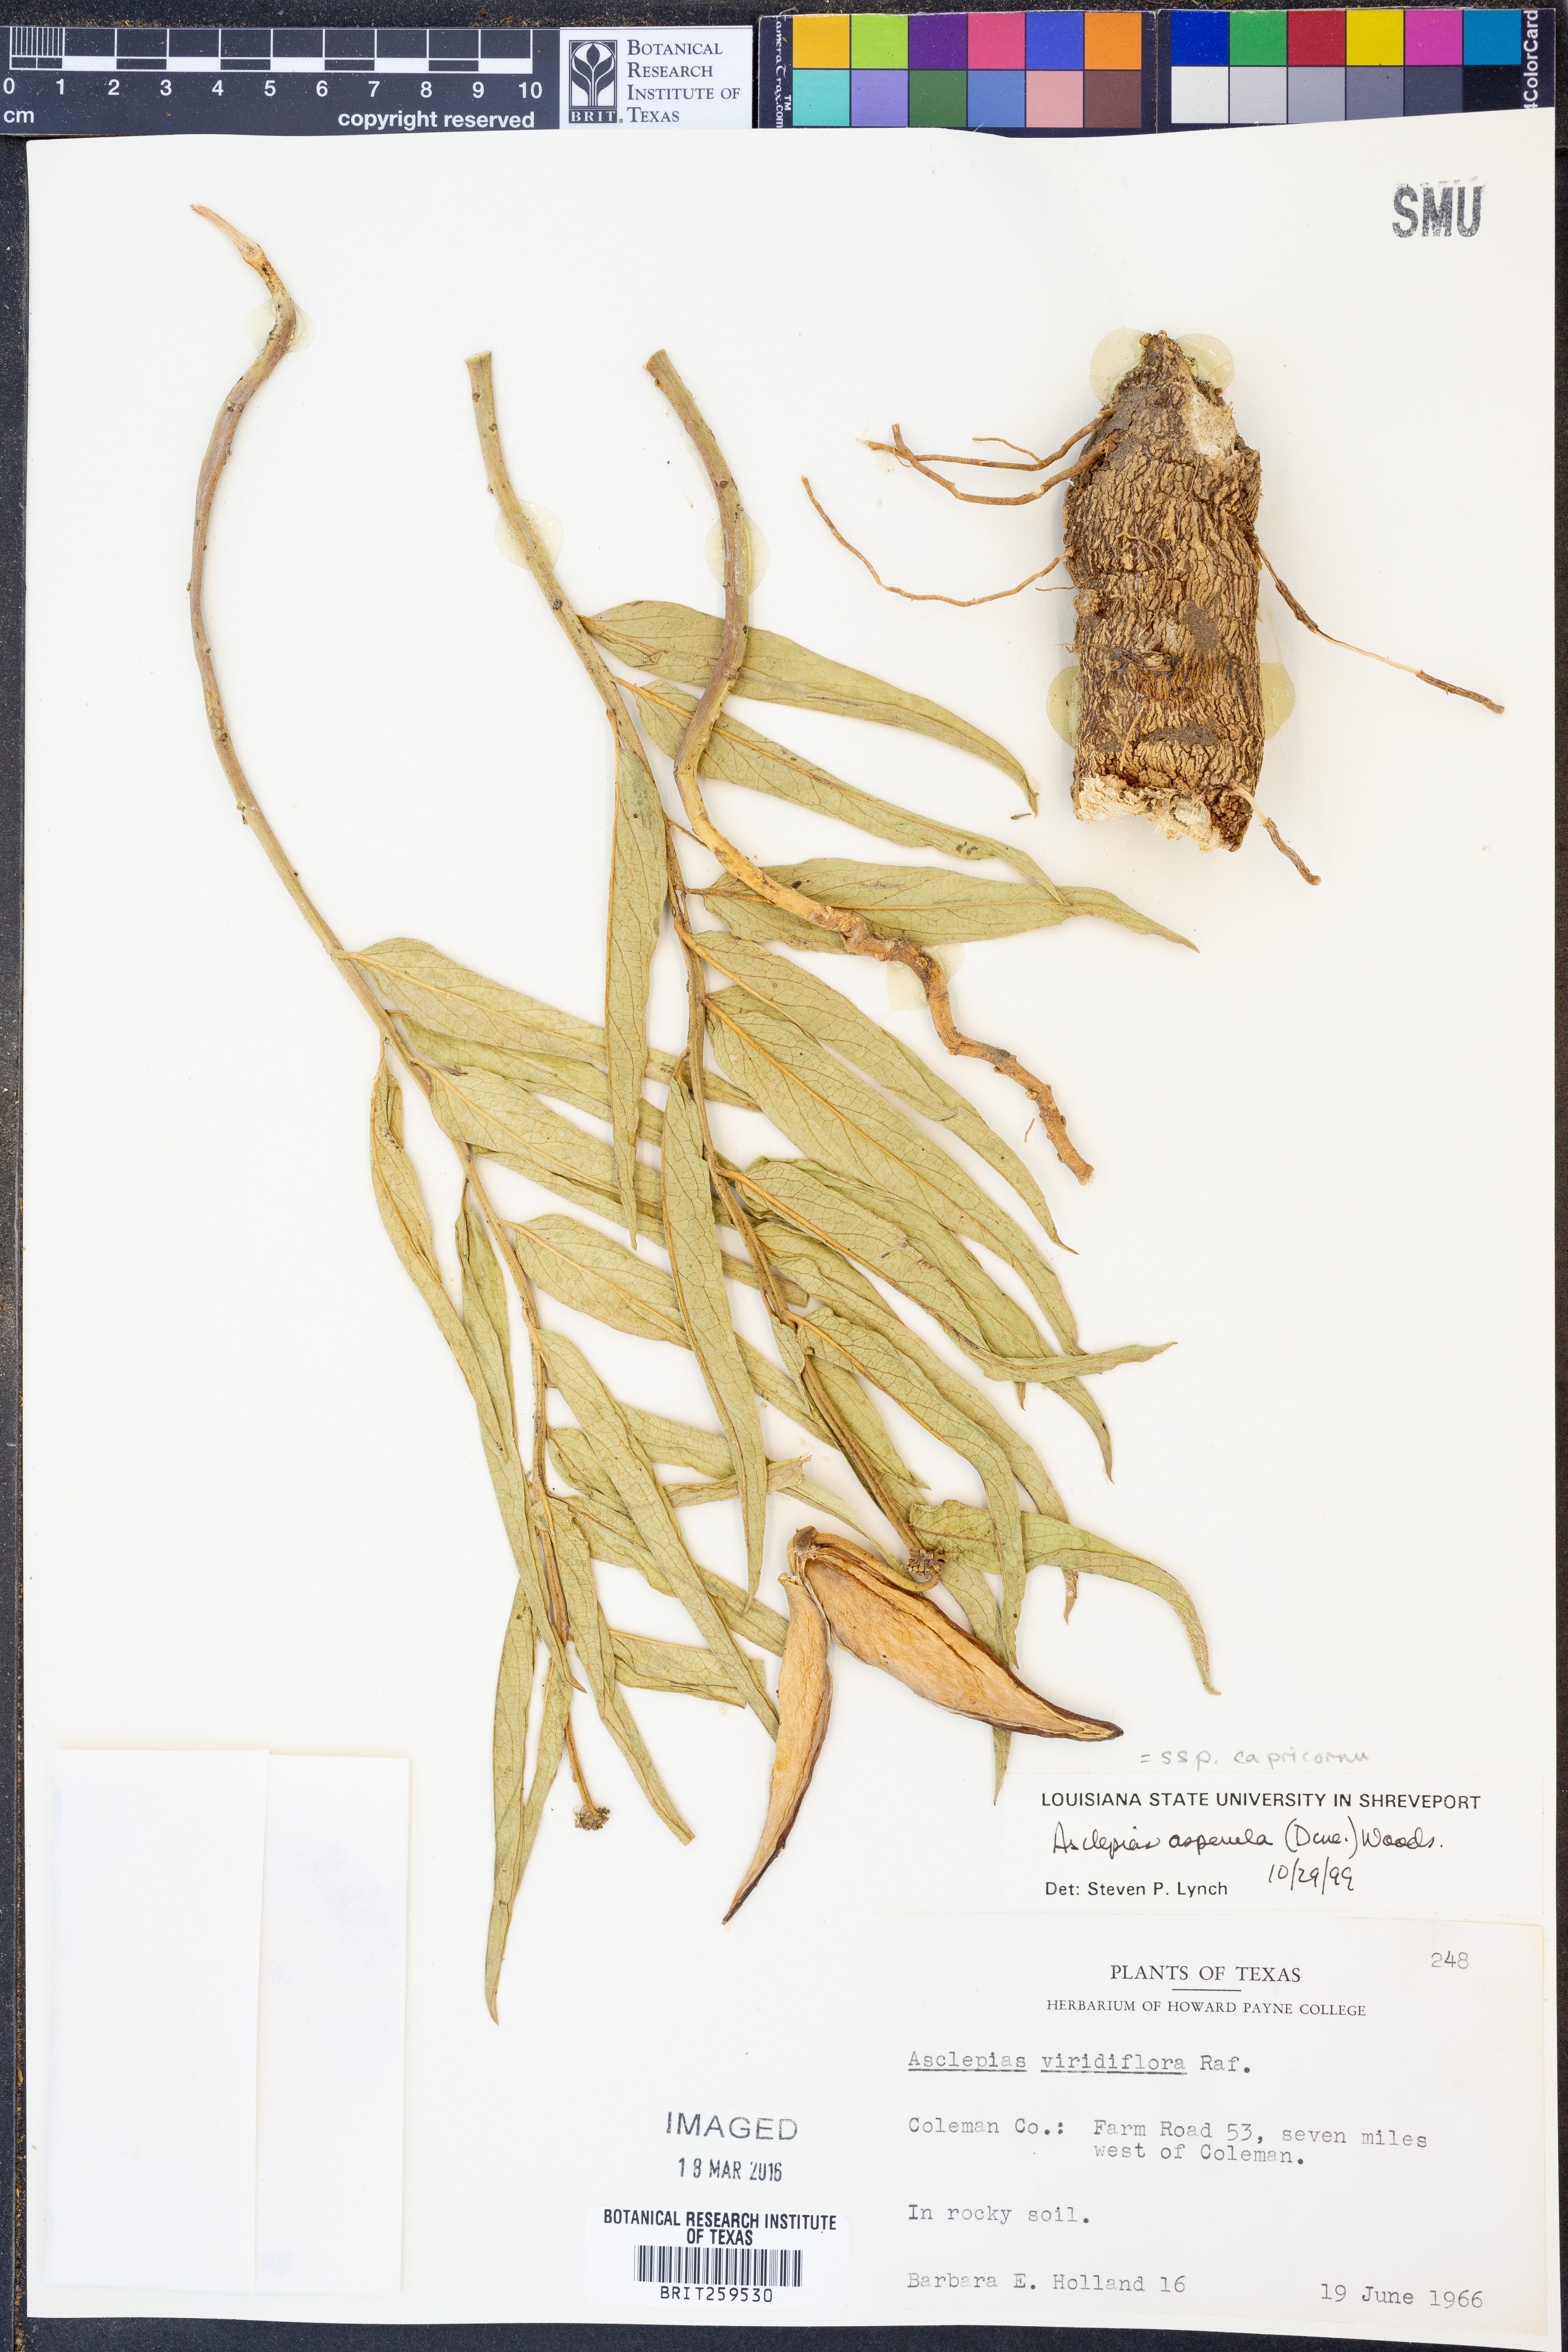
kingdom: Plantae
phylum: Tracheophyta
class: Magnoliopsida
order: Gentianales
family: Apocynaceae
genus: Asclepias
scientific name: Asclepias asperula
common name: Antelope horns
